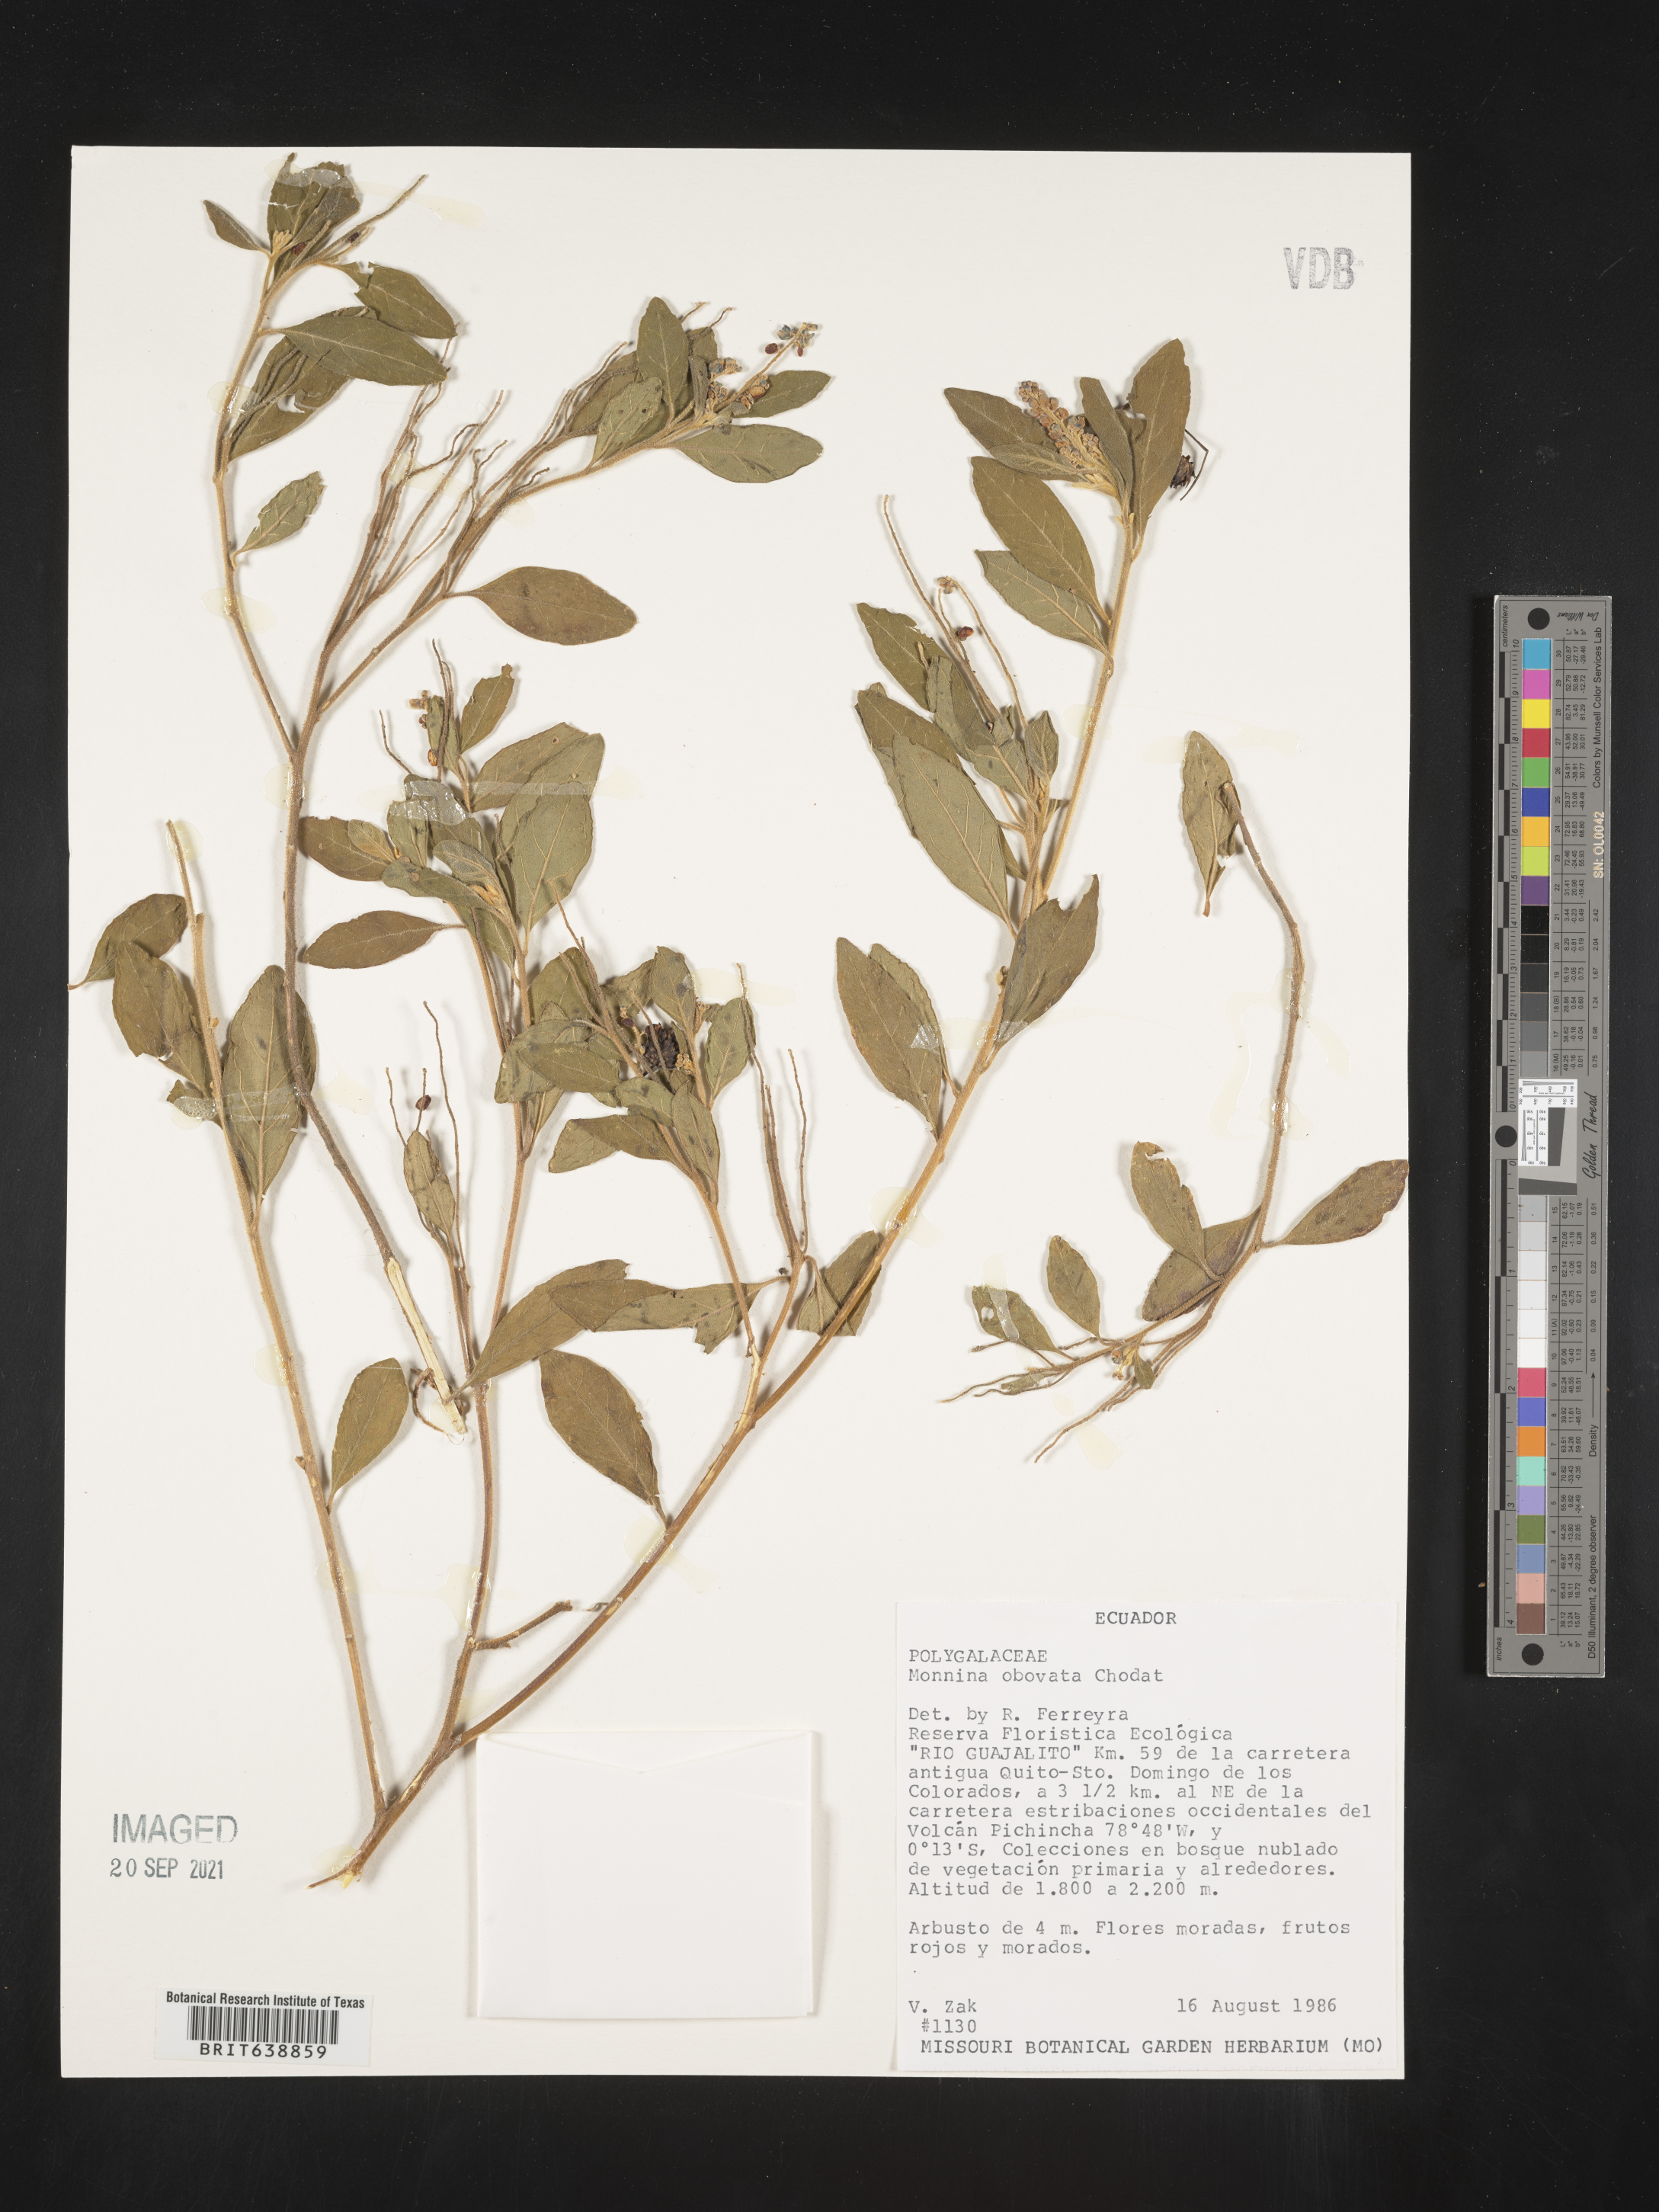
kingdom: Plantae
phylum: Tracheophyta
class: Magnoliopsida
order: Fabales
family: Polygalaceae
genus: Monnina
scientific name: Monnina
